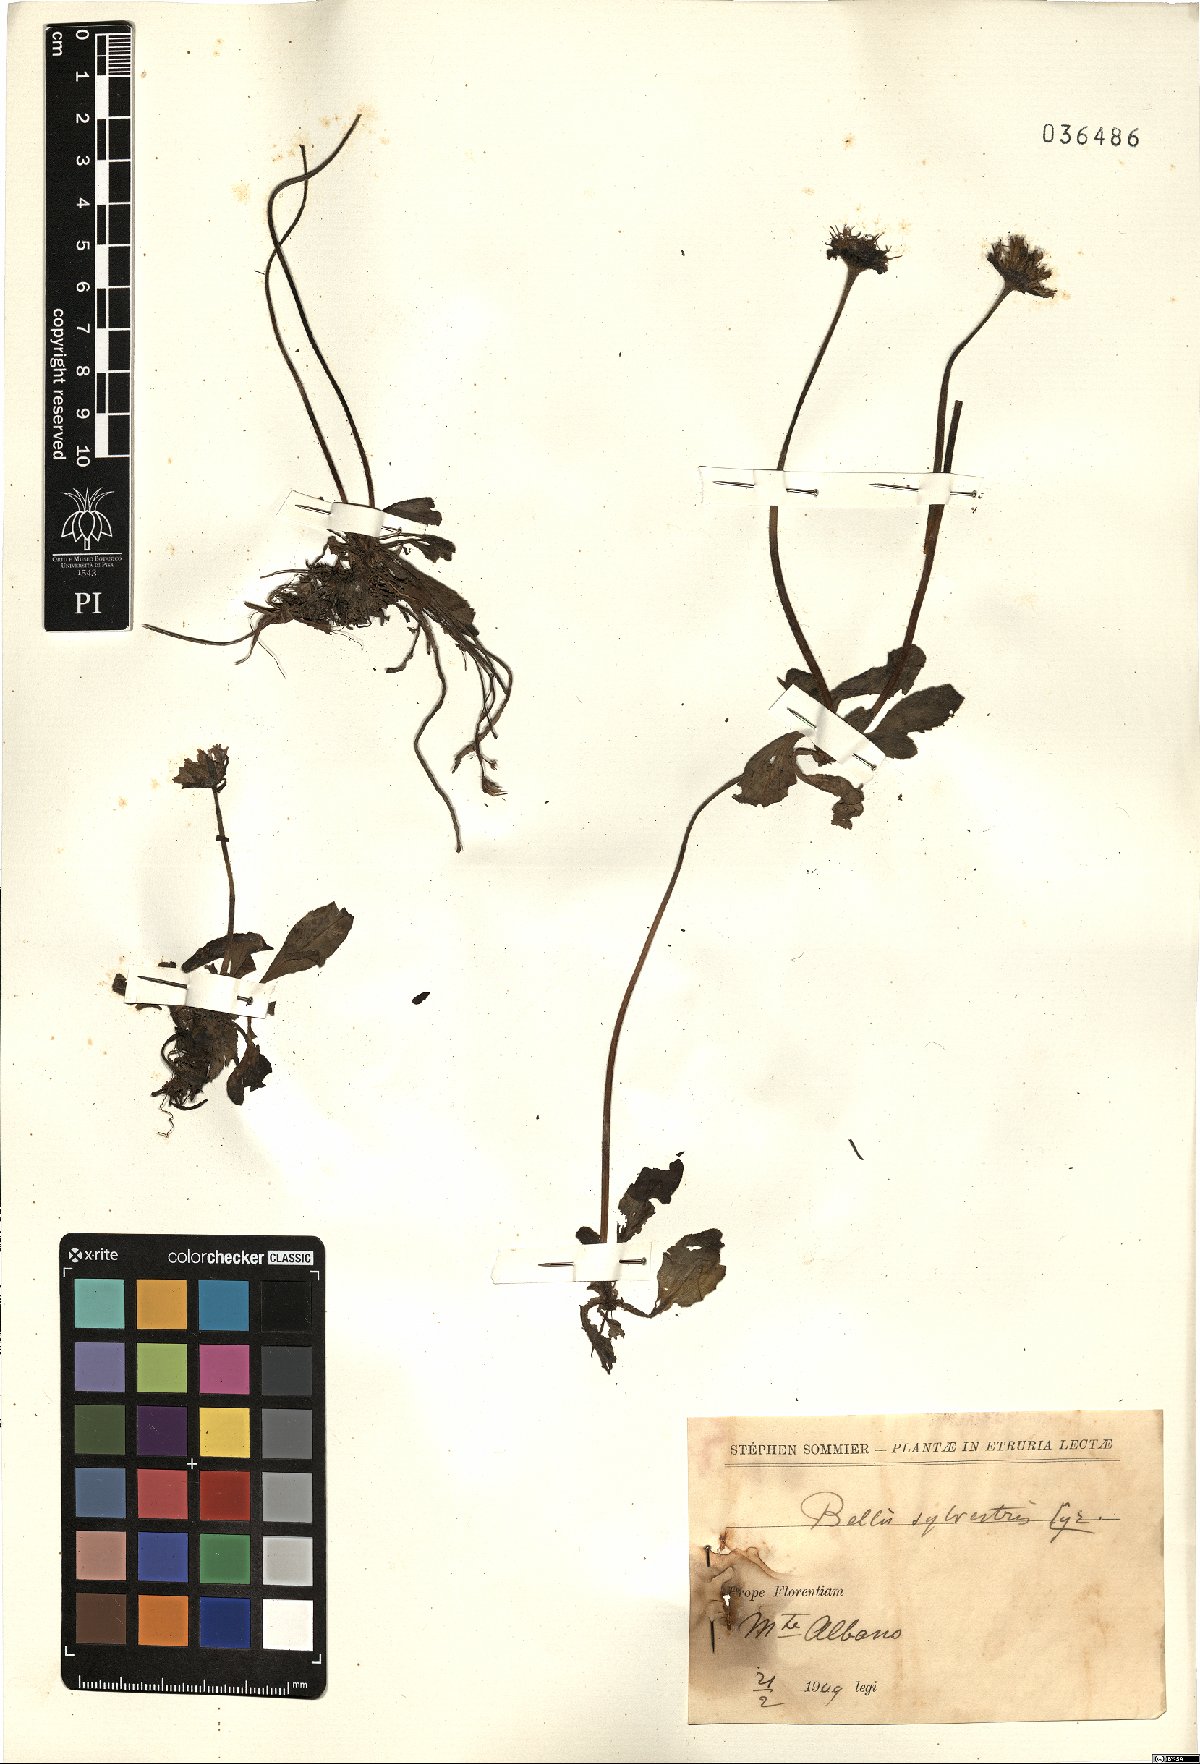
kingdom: Plantae
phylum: Tracheophyta
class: Magnoliopsida
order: Asterales
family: Asteraceae
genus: Bellis
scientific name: Bellis sylvestris
